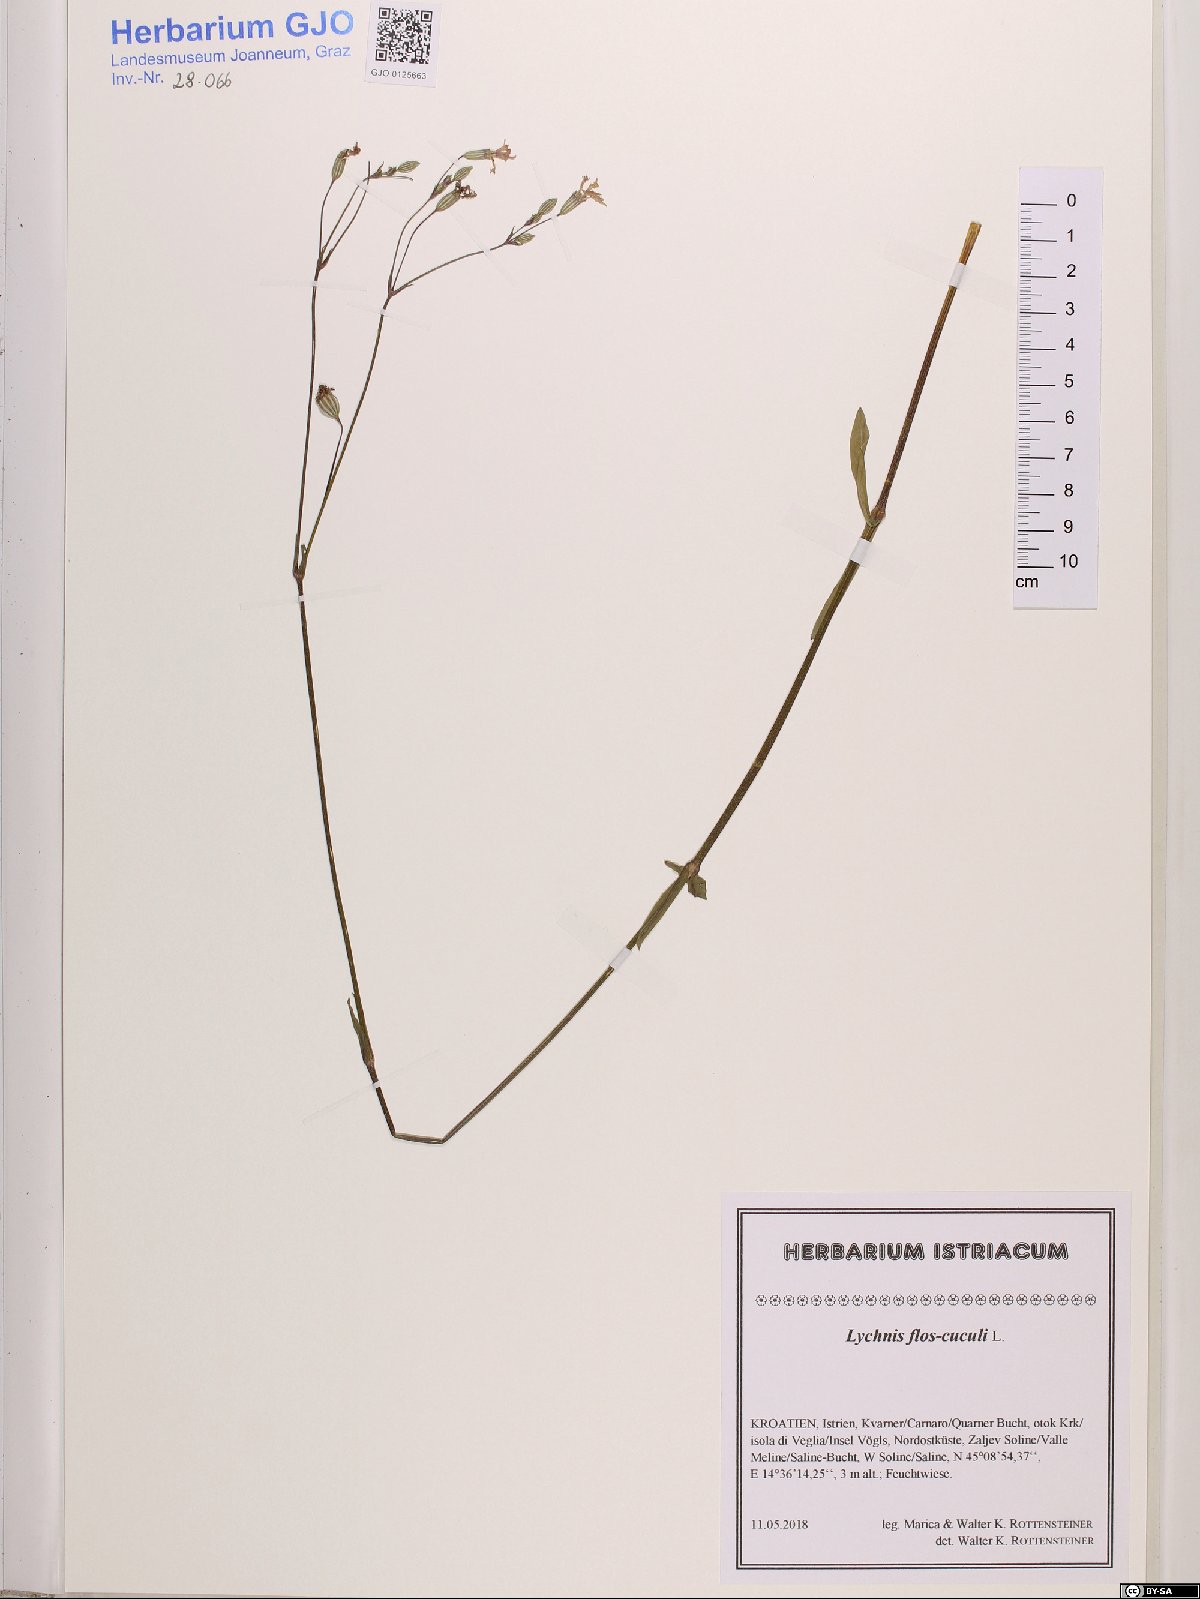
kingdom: Plantae
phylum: Tracheophyta
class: Magnoliopsida
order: Caryophyllales
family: Caryophyllaceae
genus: Silene
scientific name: Silene flos-cuculi
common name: Ragged-robin
